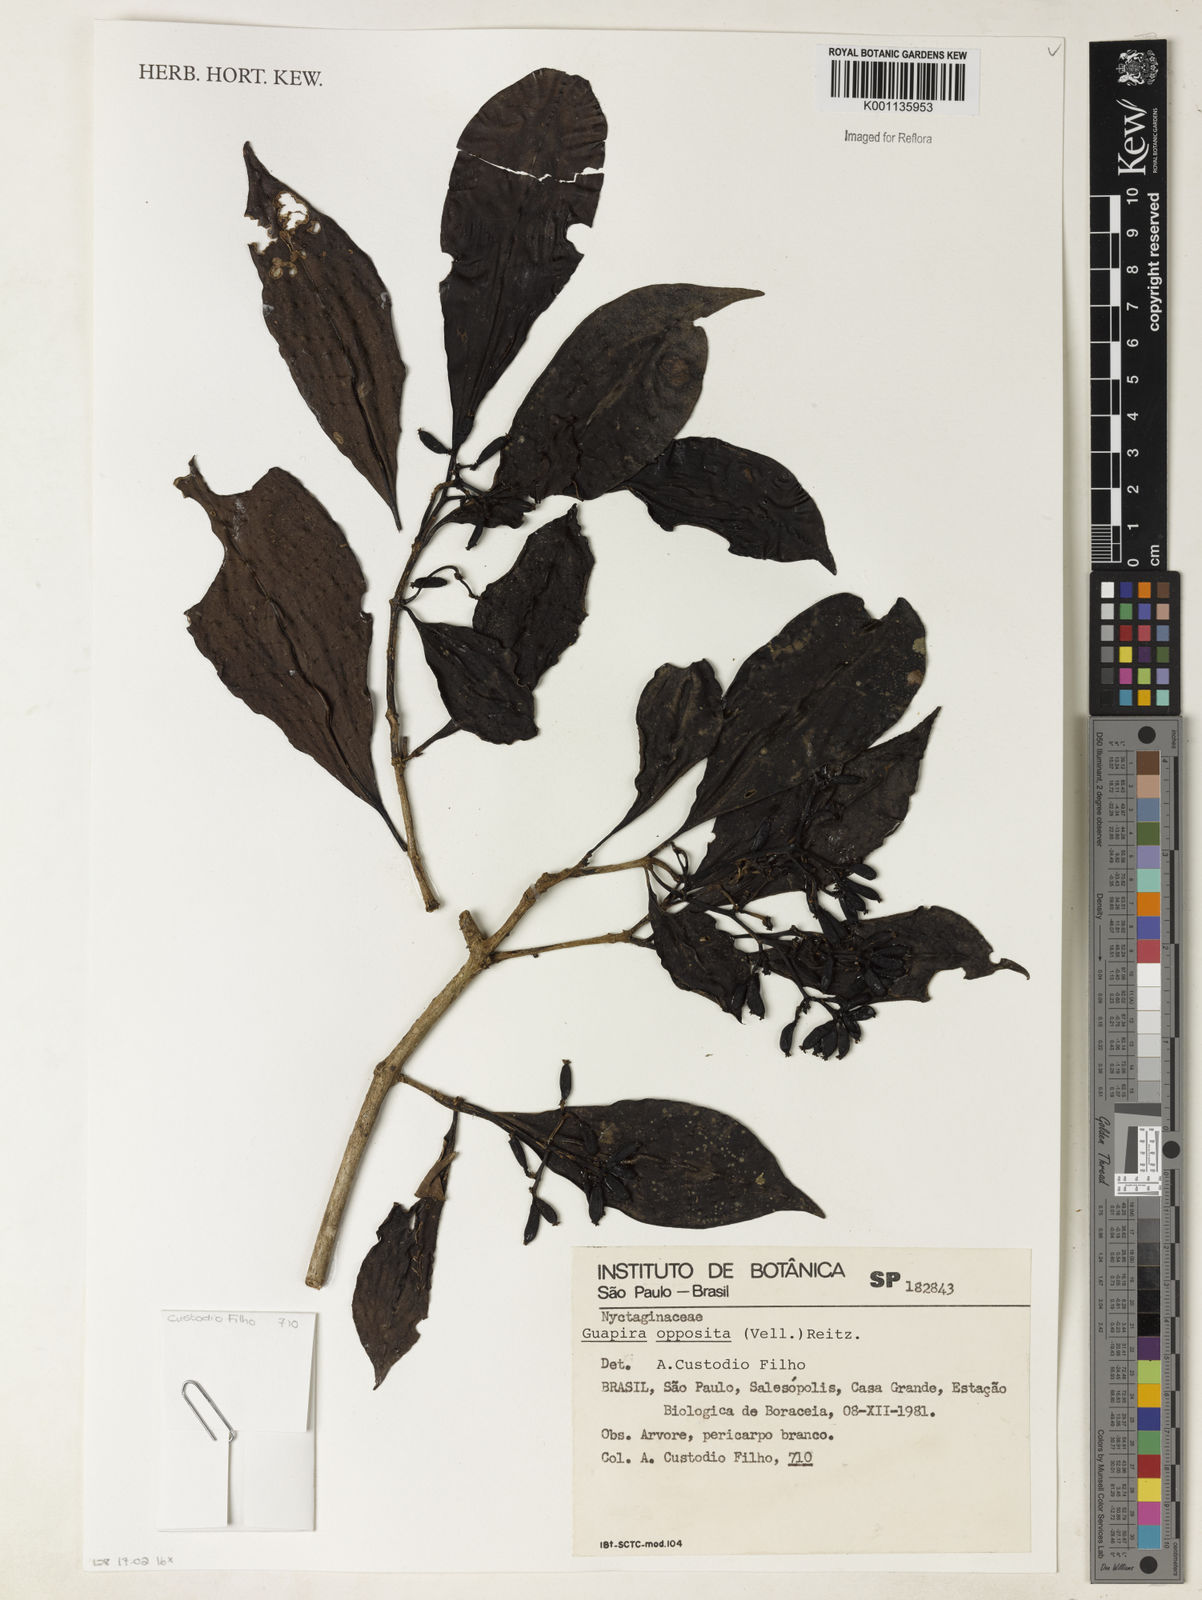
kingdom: Plantae
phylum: Tracheophyta
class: Magnoliopsida
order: Caryophyllales
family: Nyctaginaceae
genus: Guapira
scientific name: Guapira opposita
